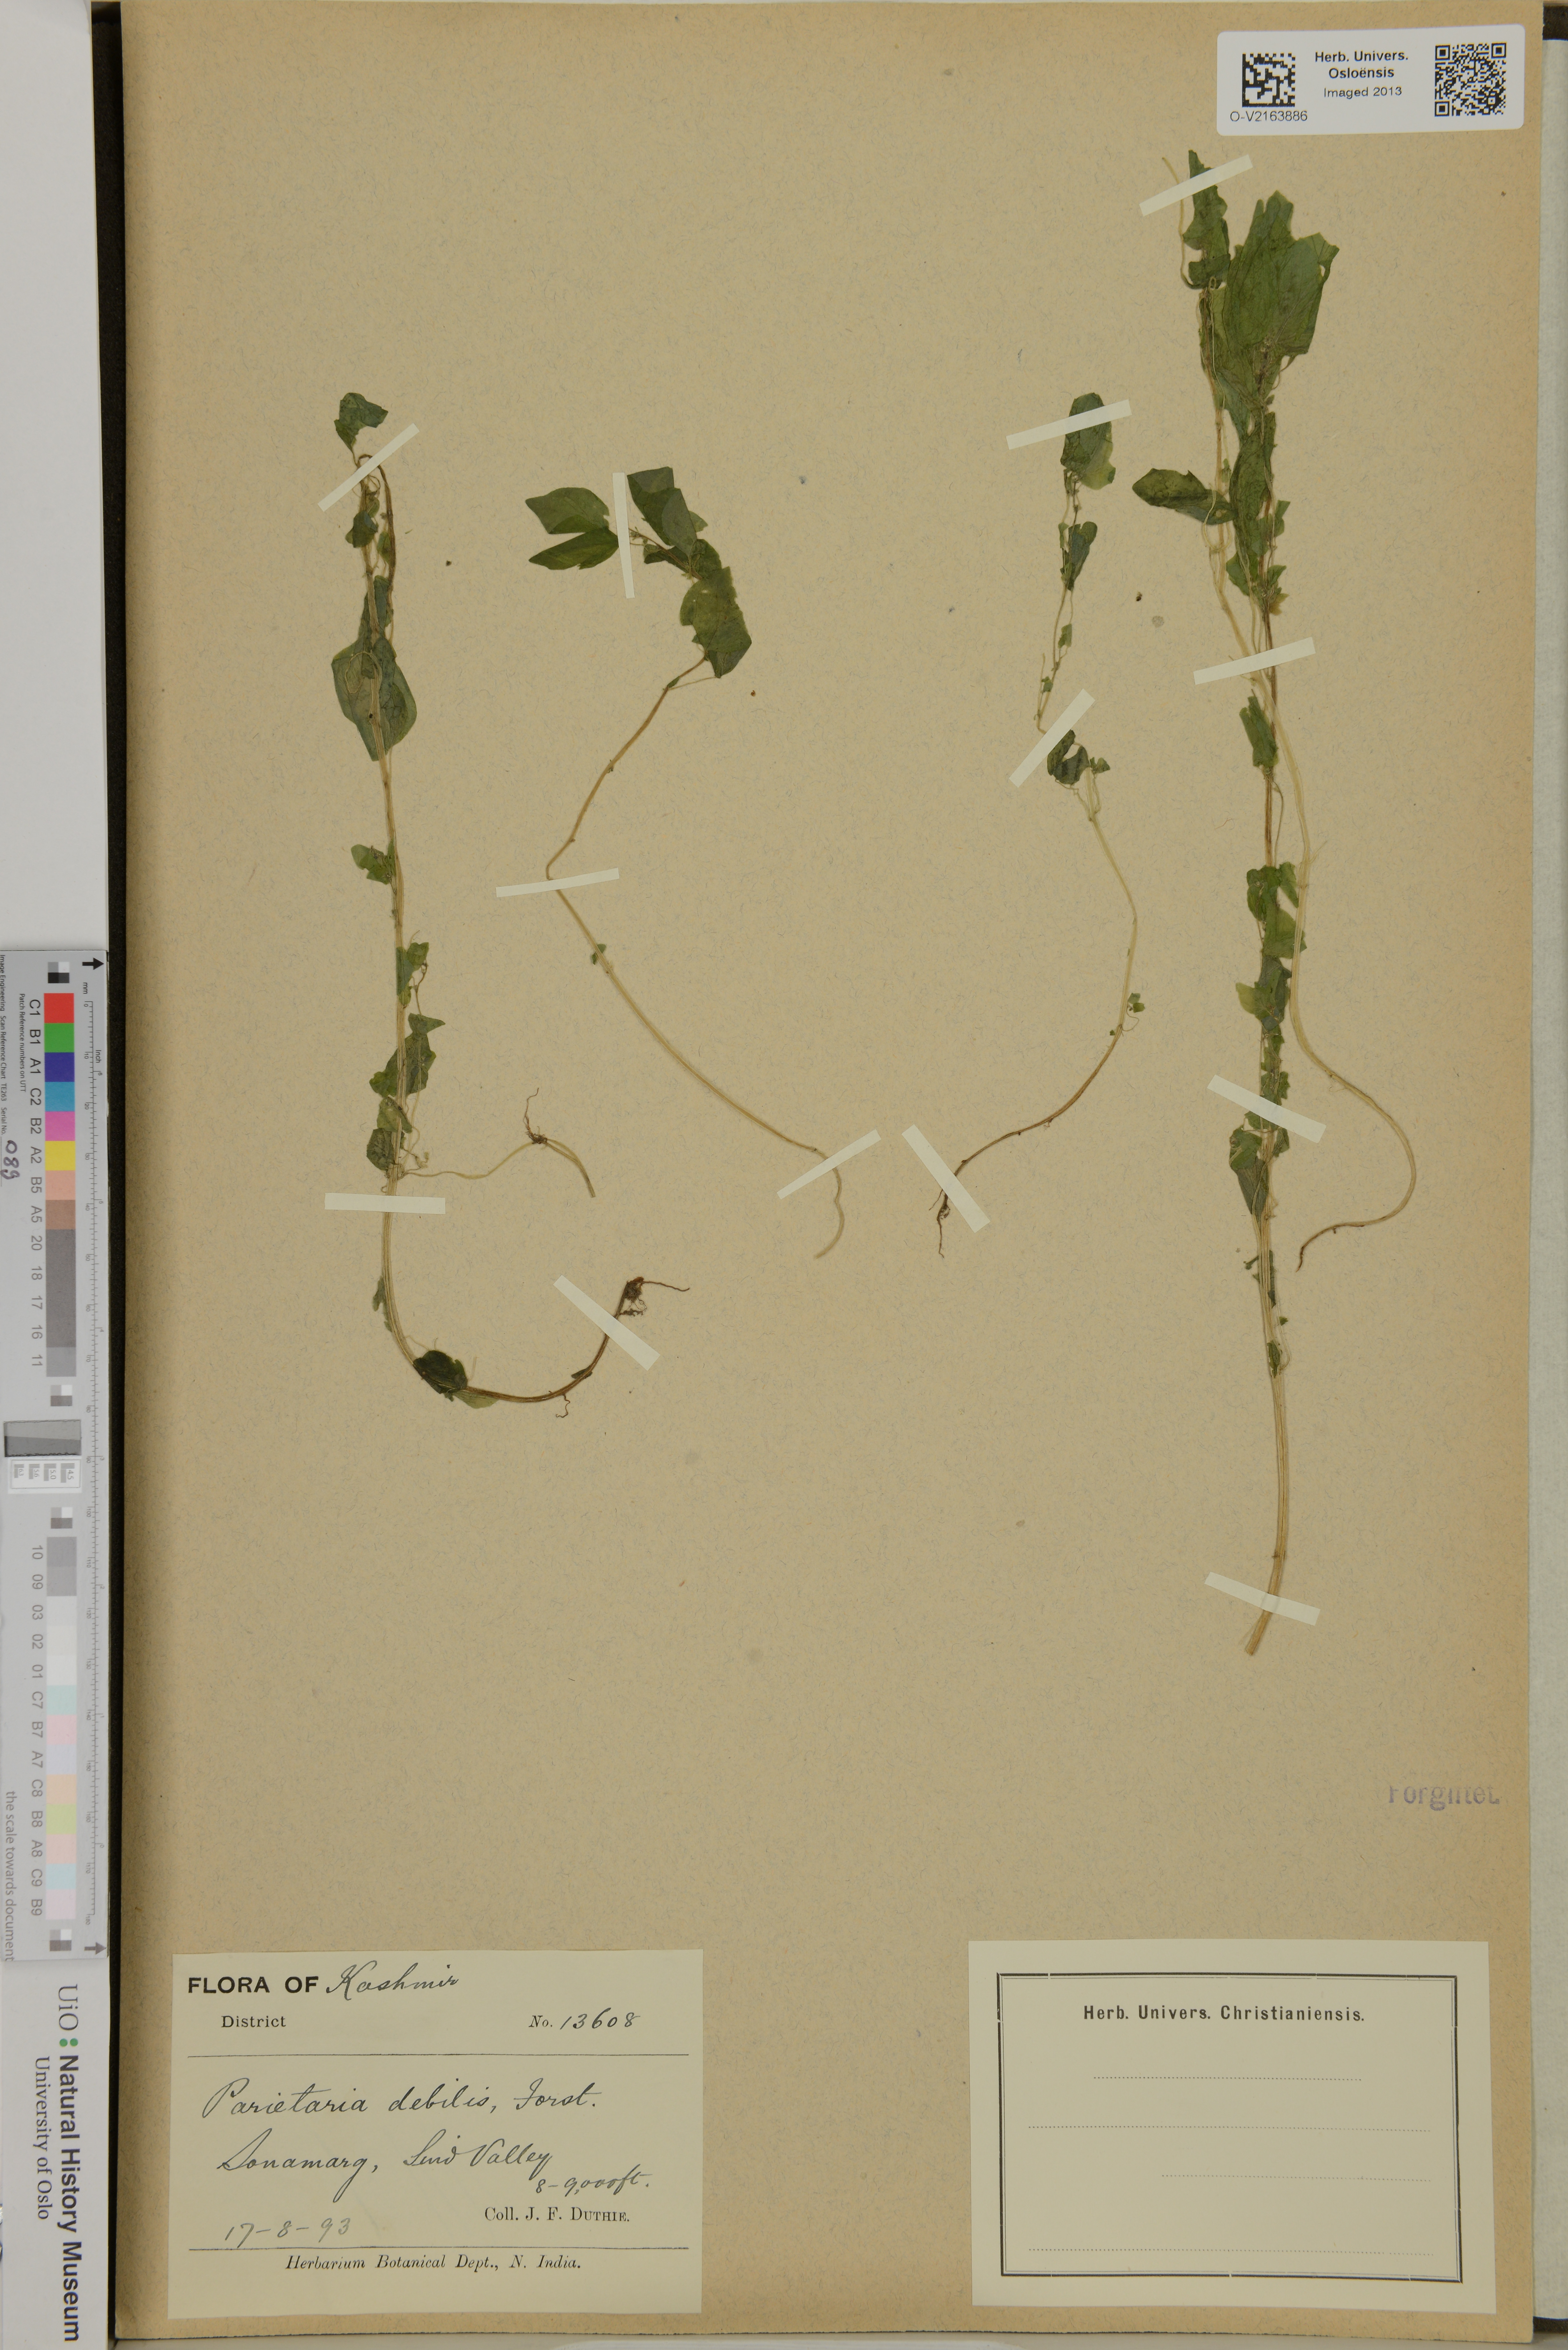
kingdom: Plantae
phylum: Tracheophyta
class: Magnoliopsida
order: Rosales
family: Urticaceae
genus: Parietaria
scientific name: Parietaria debilis
